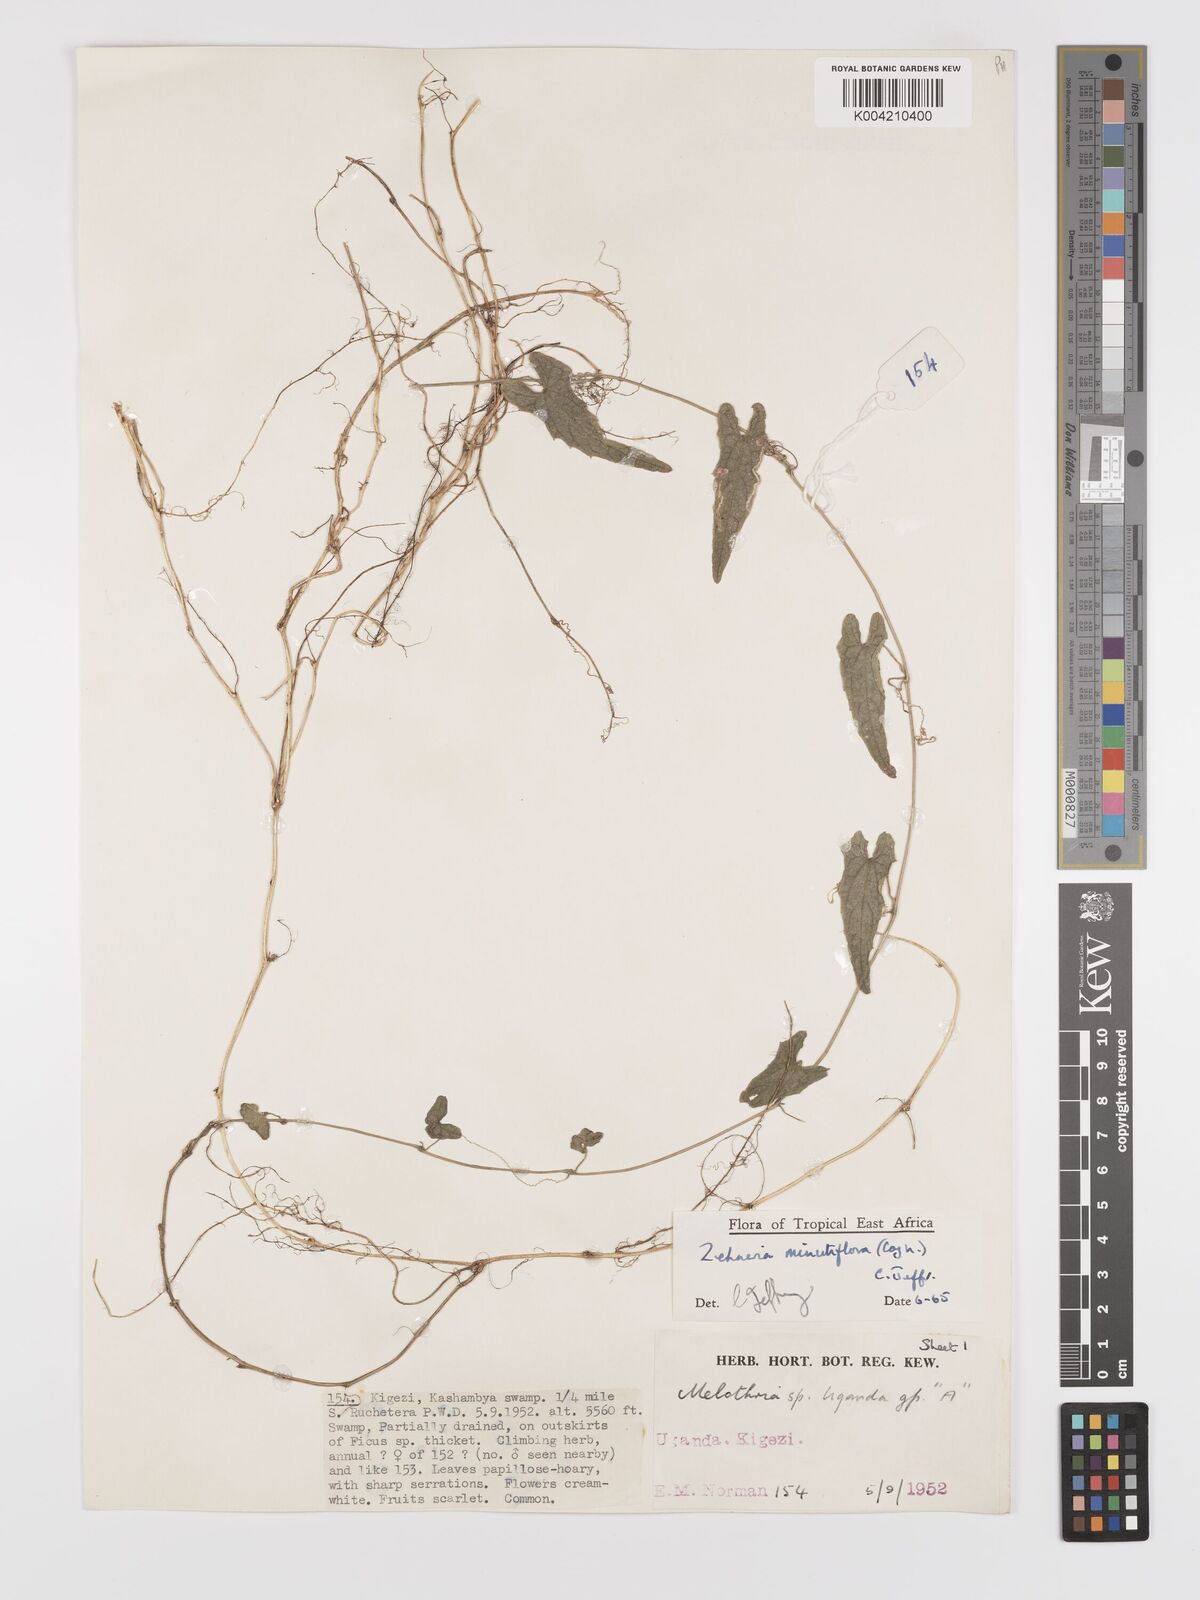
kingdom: Plantae
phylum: Tracheophyta
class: Magnoliopsida
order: Cucurbitales
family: Cucurbitaceae
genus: Zehneria
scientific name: Zehneria minutiflora
